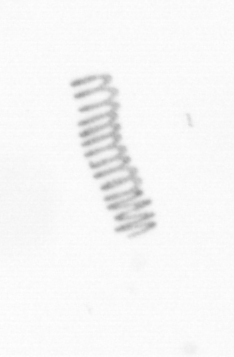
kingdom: Chromista
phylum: Ochrophyta
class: Bacillariophyceae
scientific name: Bacillariophyceae
